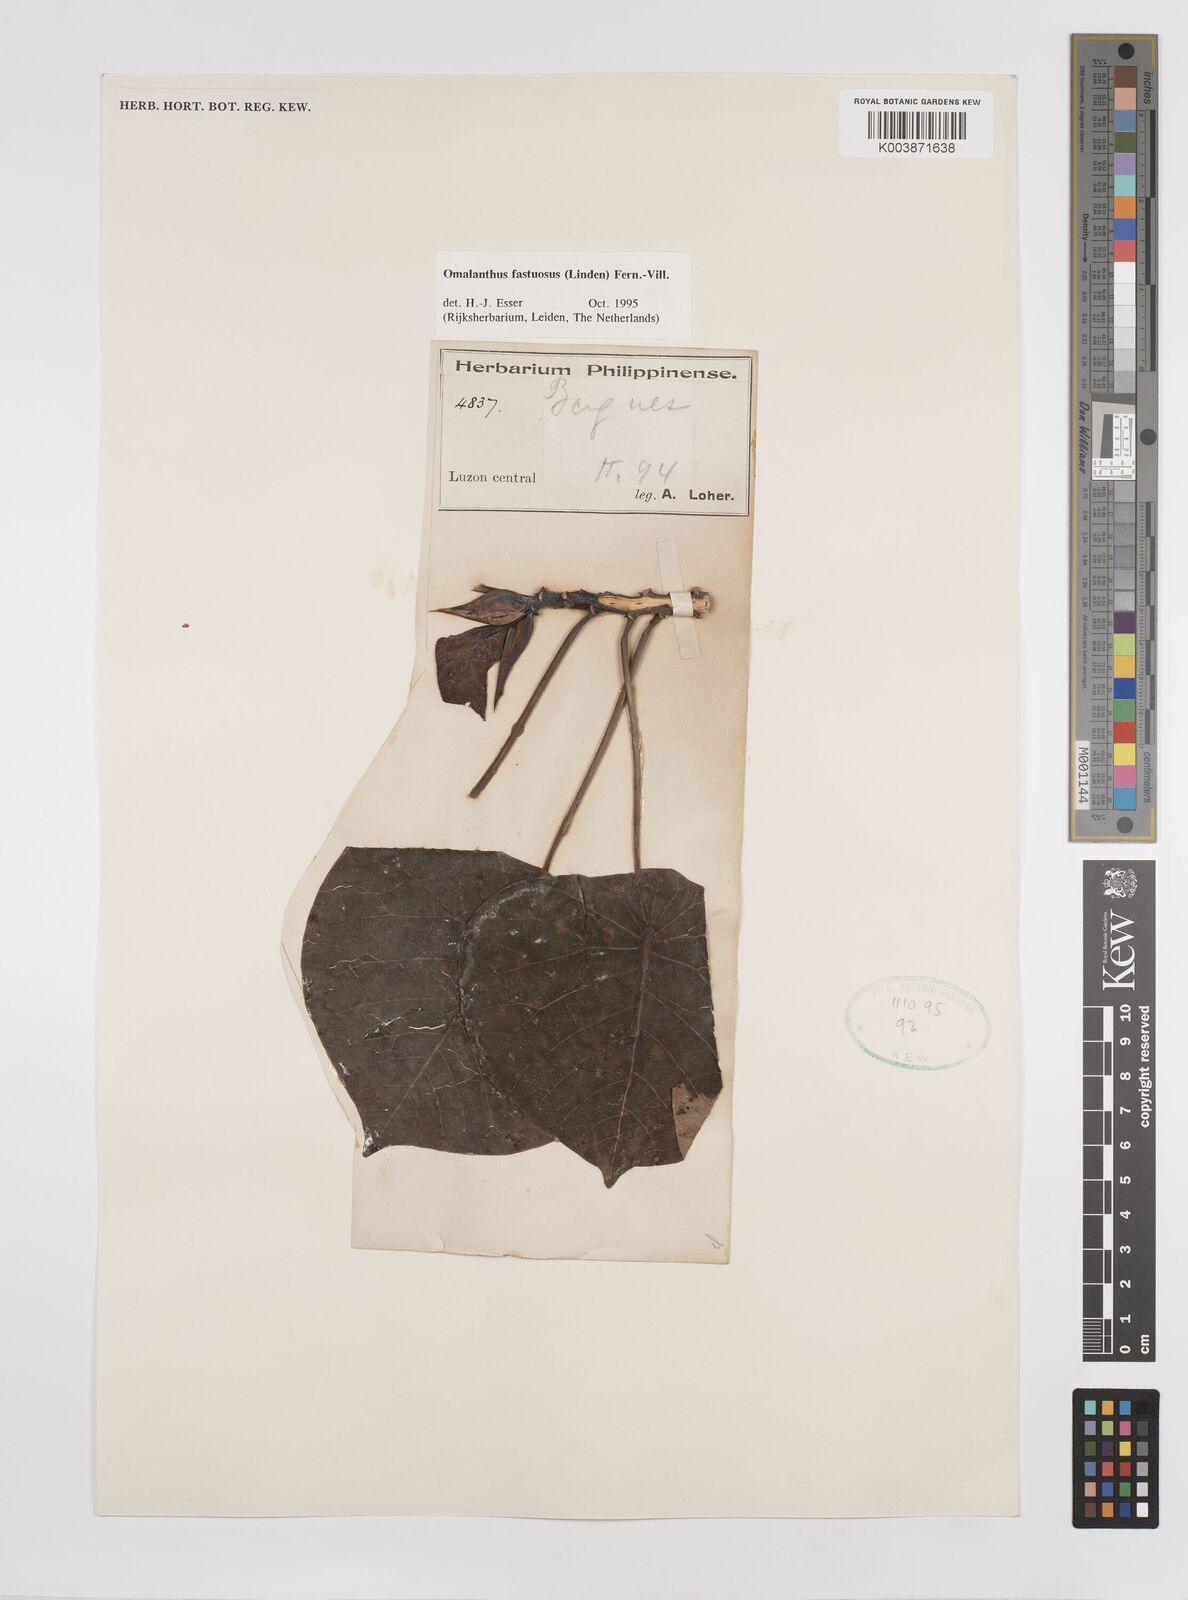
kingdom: Plantae
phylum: Tracheophyta
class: Magnoliopsida
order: Malpighiales
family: Euphorbiaceae
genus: Homalanthus
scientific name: Homalanthus fastuosus
